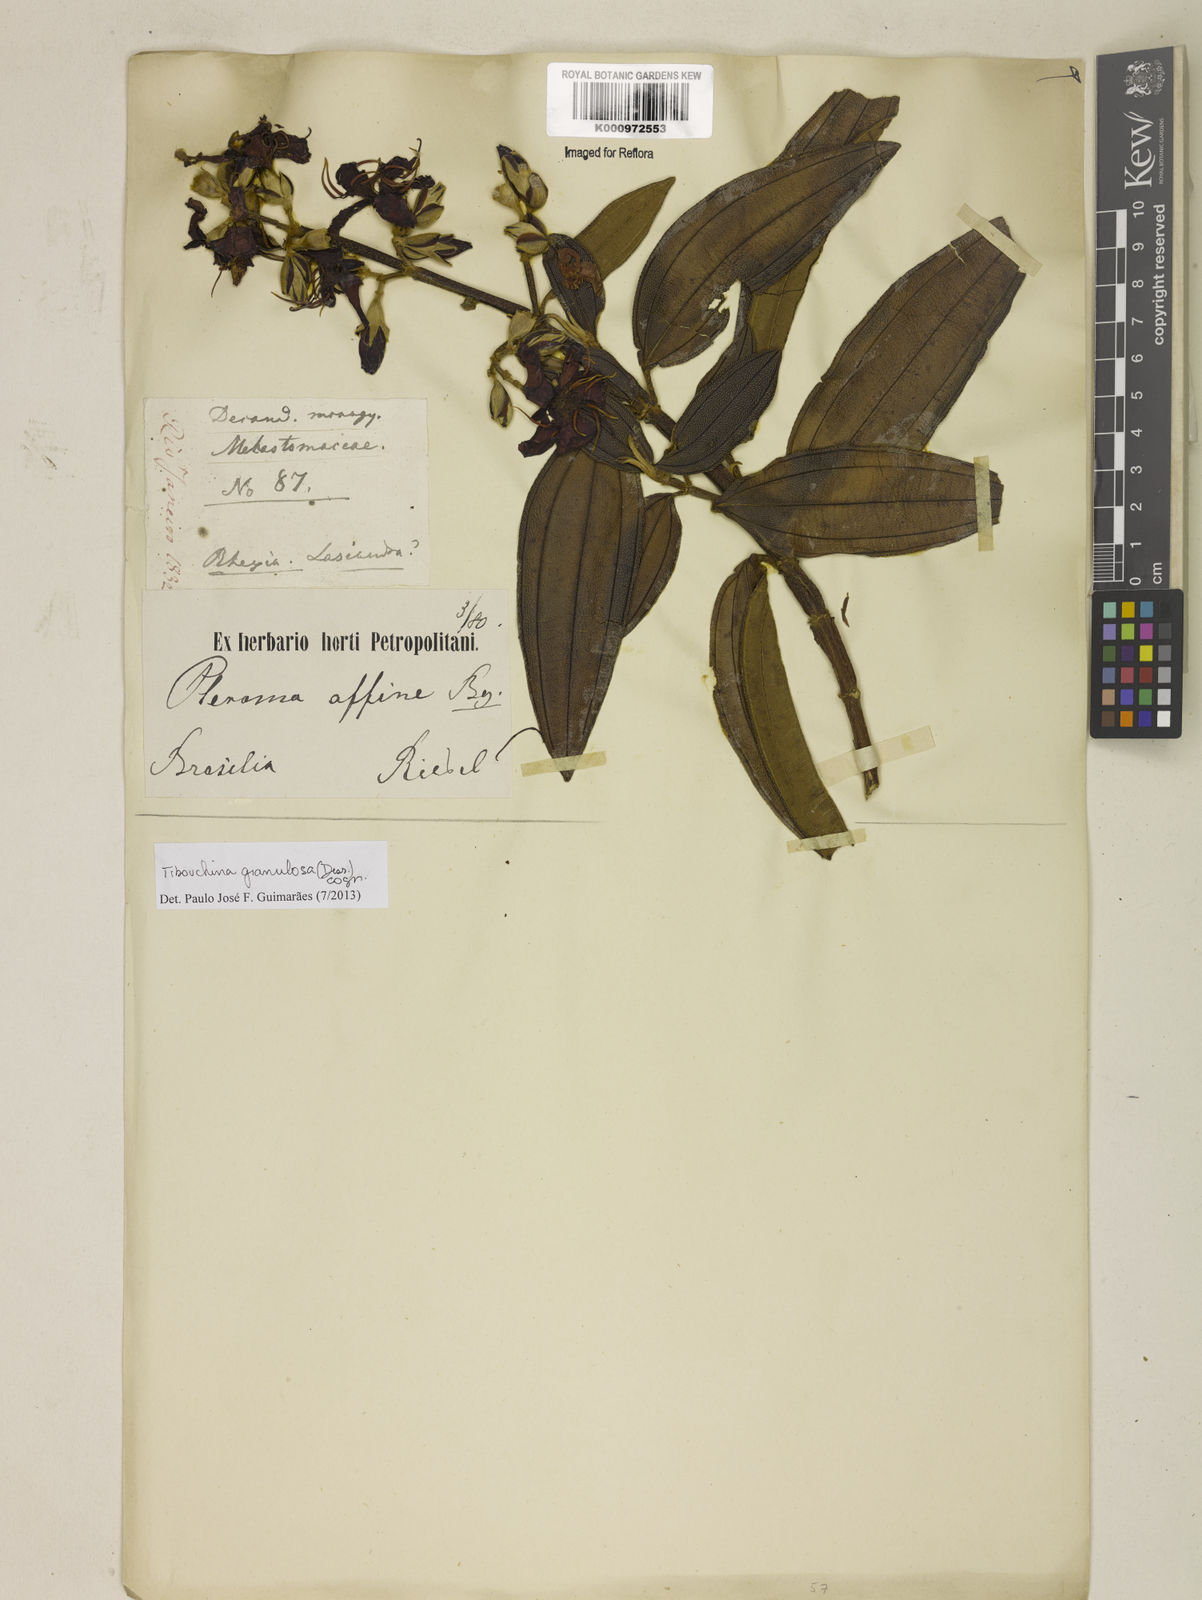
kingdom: Plantae
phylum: Tracheophyta
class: Magnoliopsida
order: Myrtales
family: Melastomataceae
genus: Pleroma
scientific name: Pleroma granulosum
